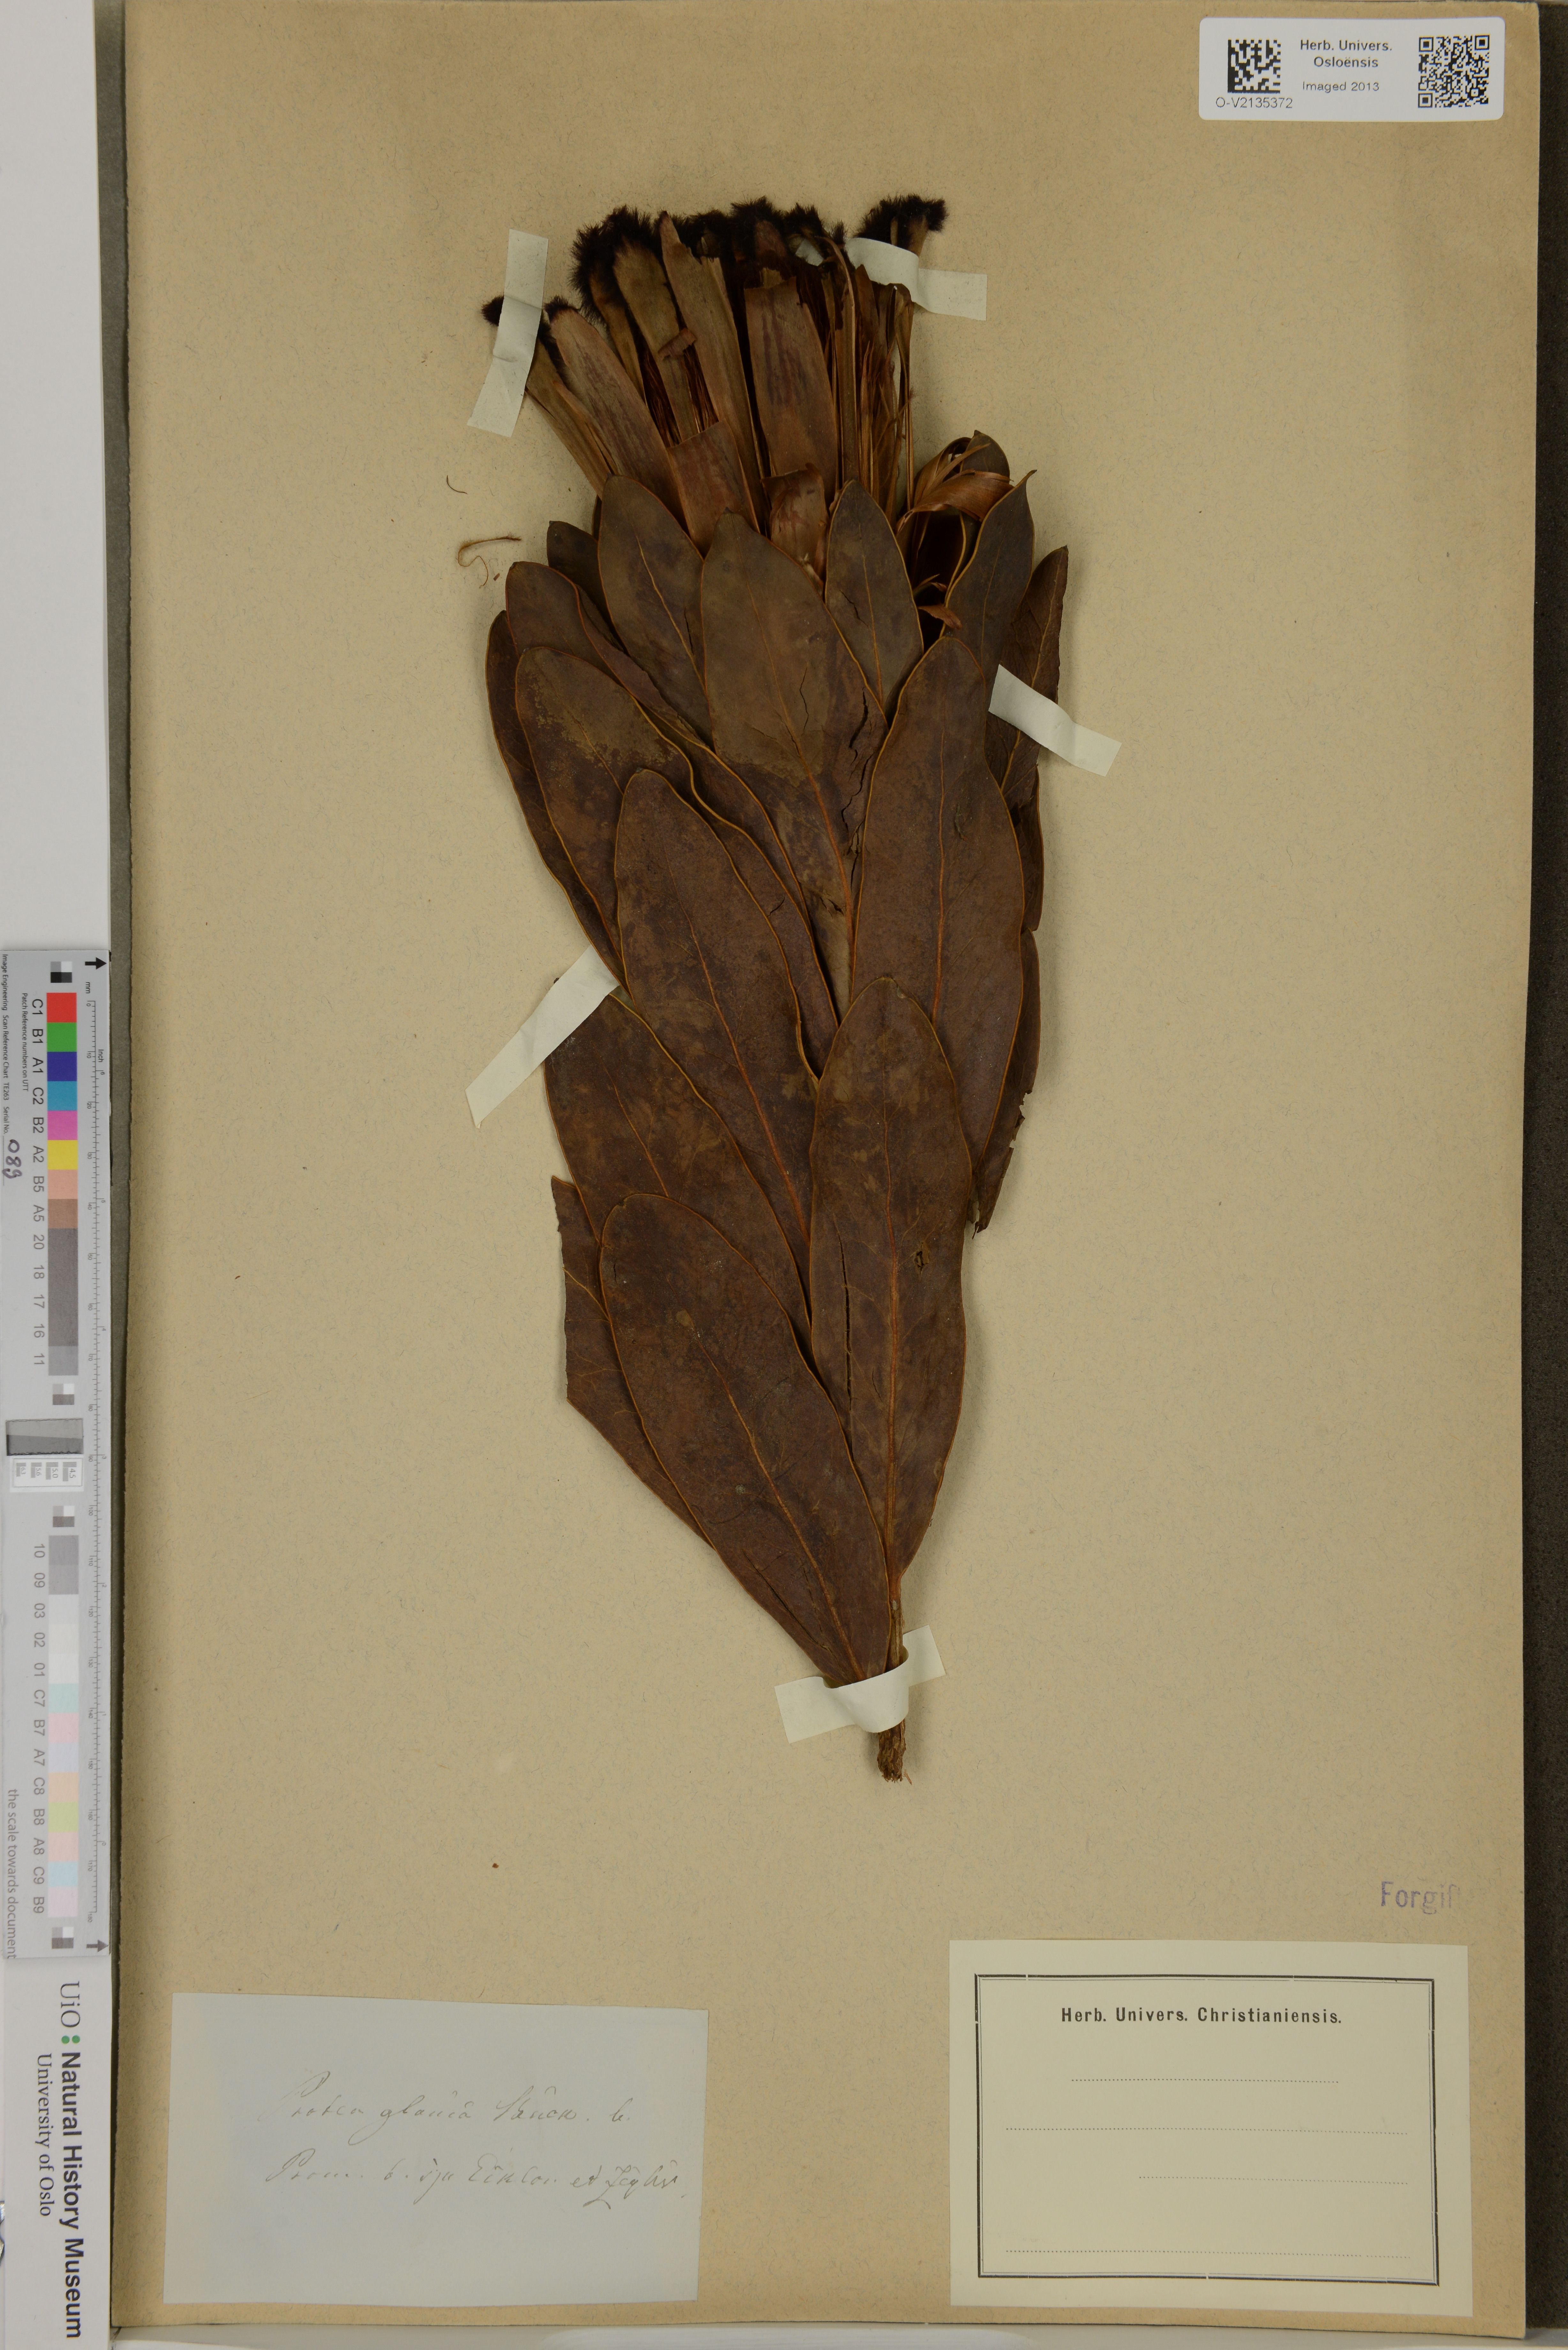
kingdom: Plantae
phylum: Tracheophyta
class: Magnoliopsida
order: Proteales
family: Proteaceae
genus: Protea
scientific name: Protea
